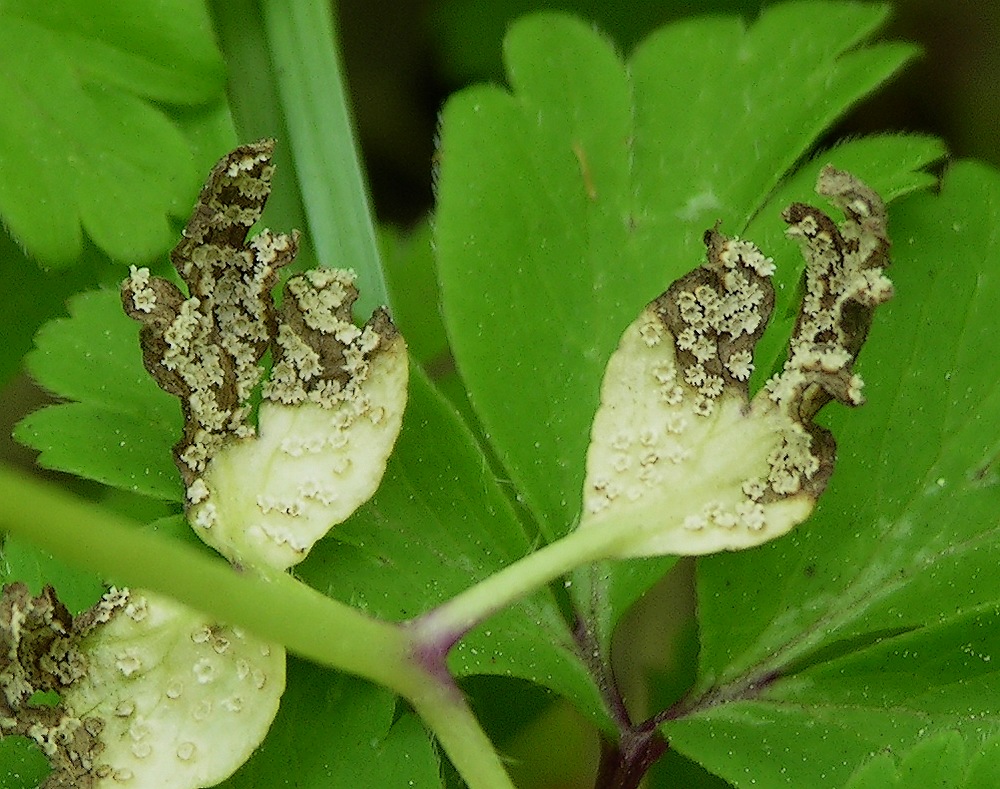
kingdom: Fungi
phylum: Basidiomycota
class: Pucciniomycetes
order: Pucciniales
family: Ochropsoraceae
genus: Ochropsora
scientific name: Ochropsora ariae
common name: anemone-okkerpletrust
